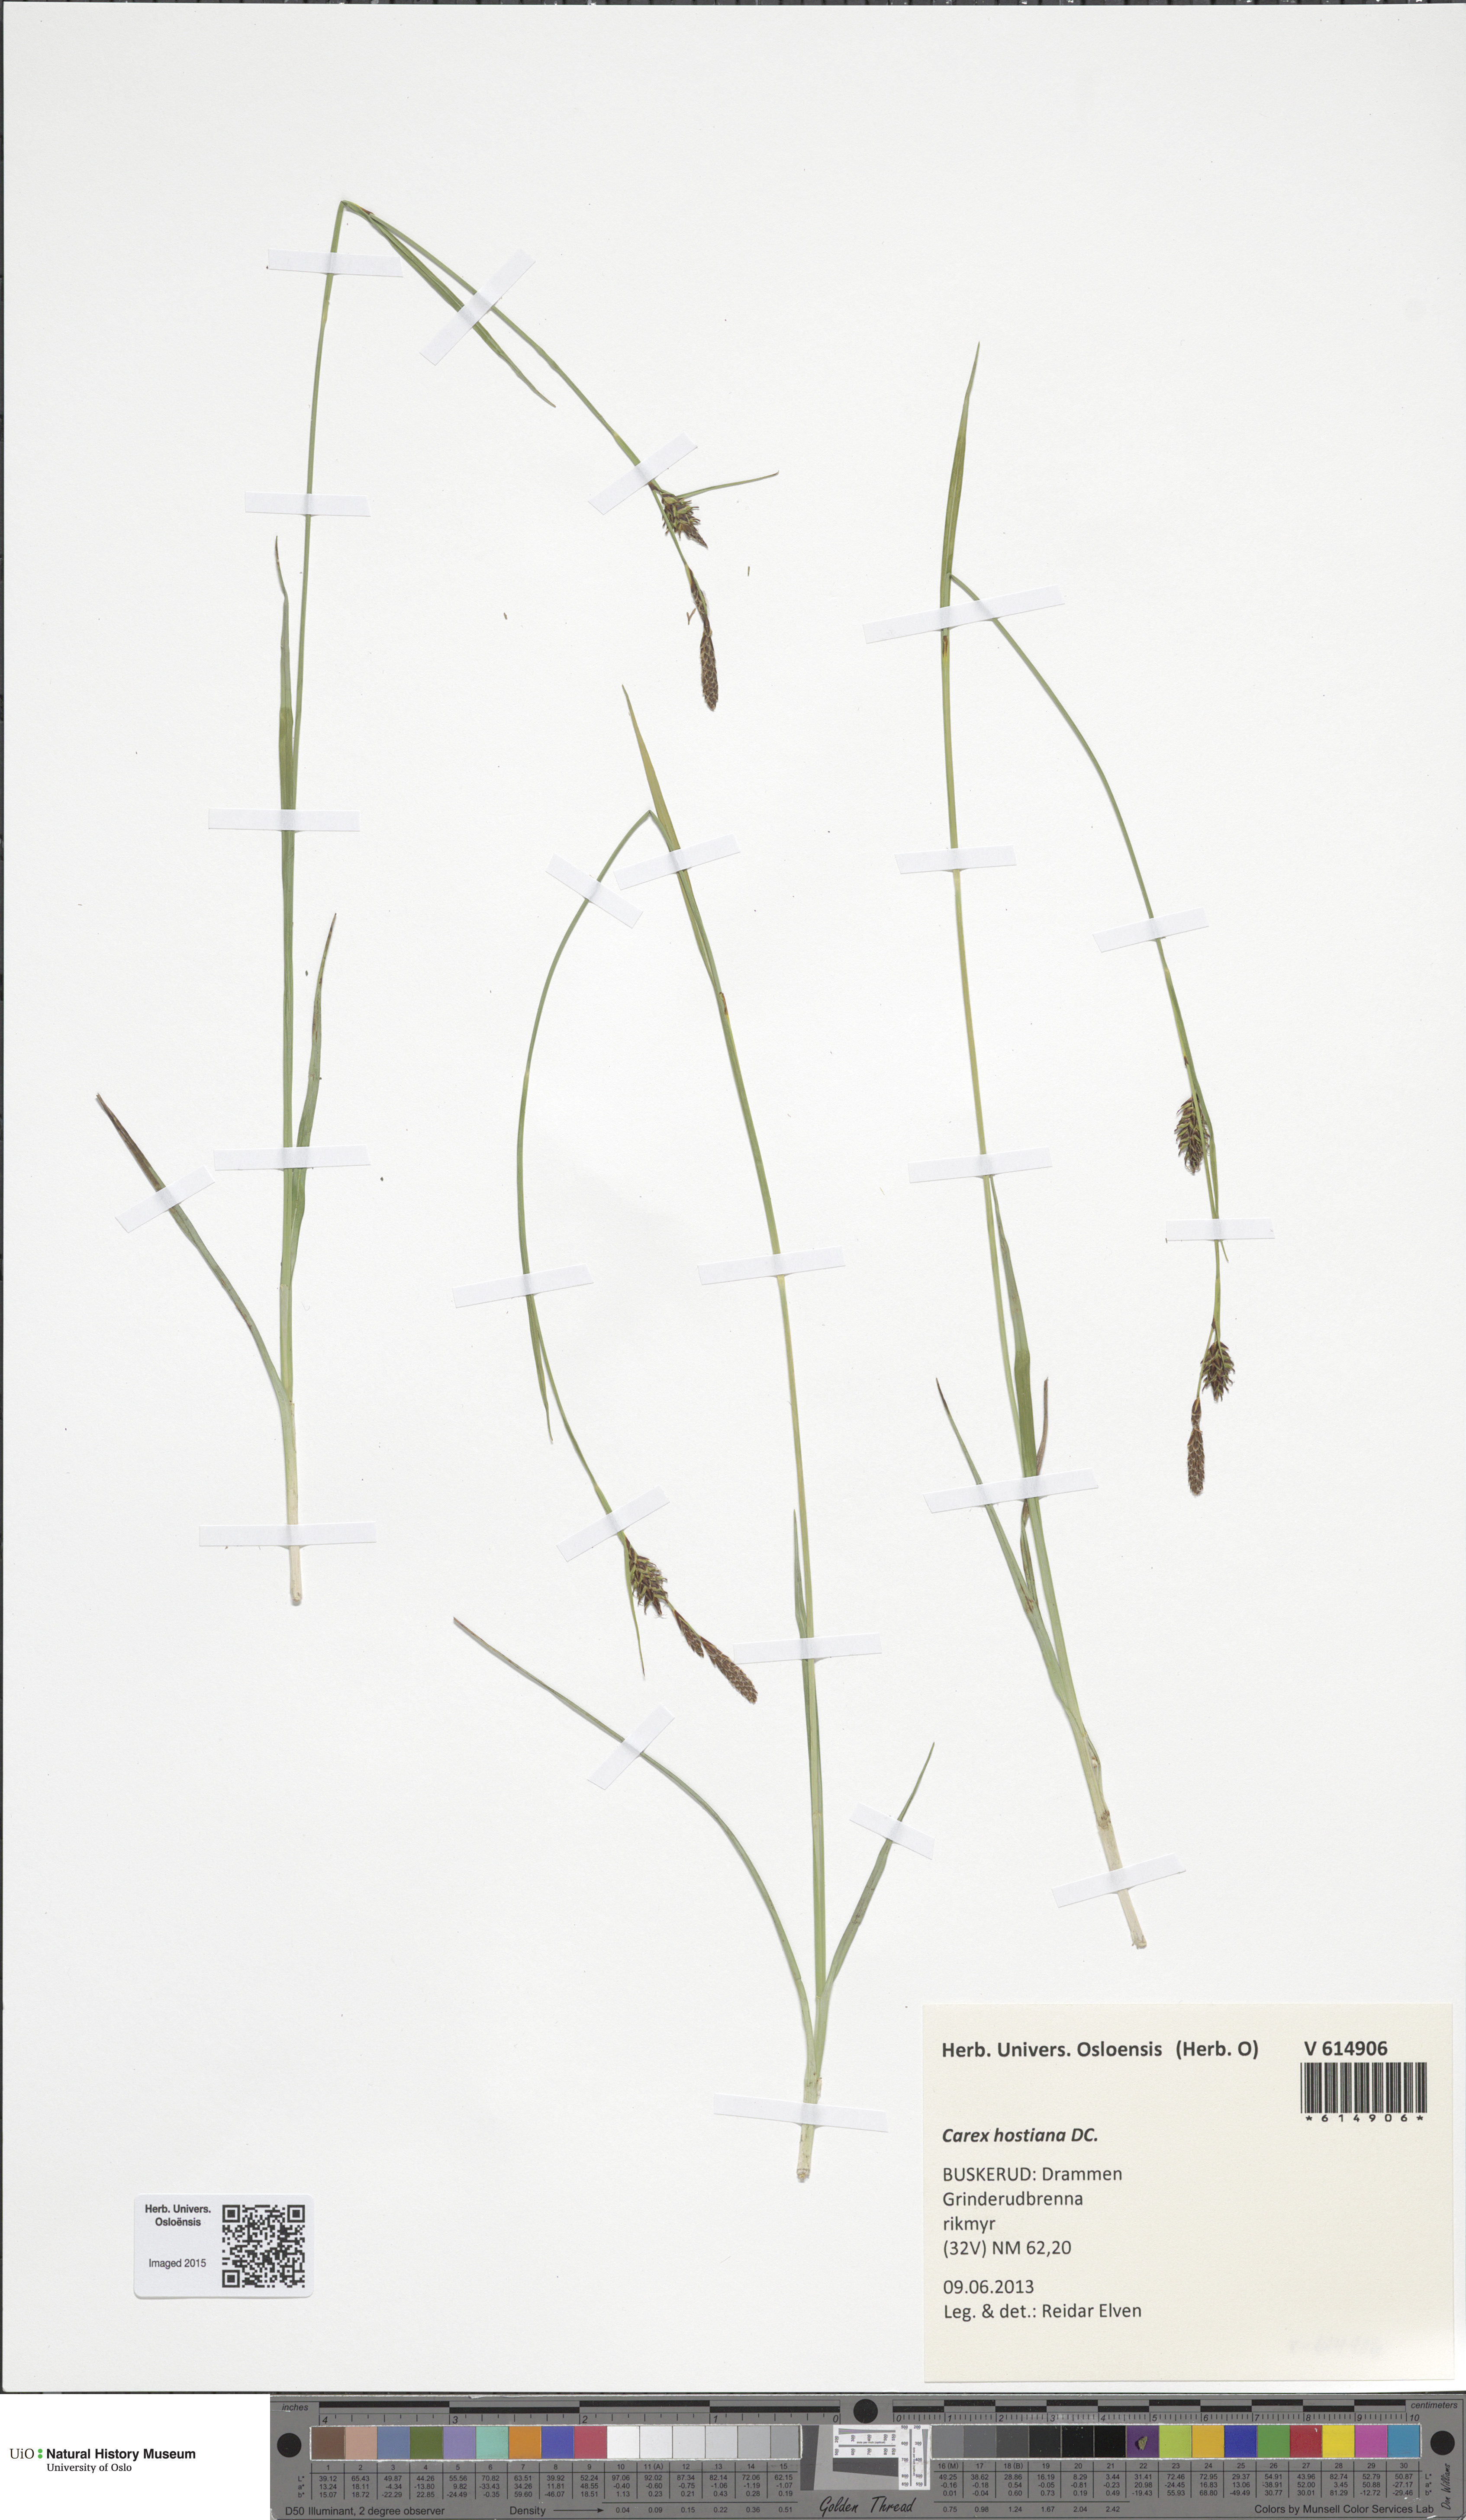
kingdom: Plantae
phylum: Tracheophyta
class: Liliopsida
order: Poales
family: Cyperaceae
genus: Carex
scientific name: Carex hostiana
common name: Tawny sedge
